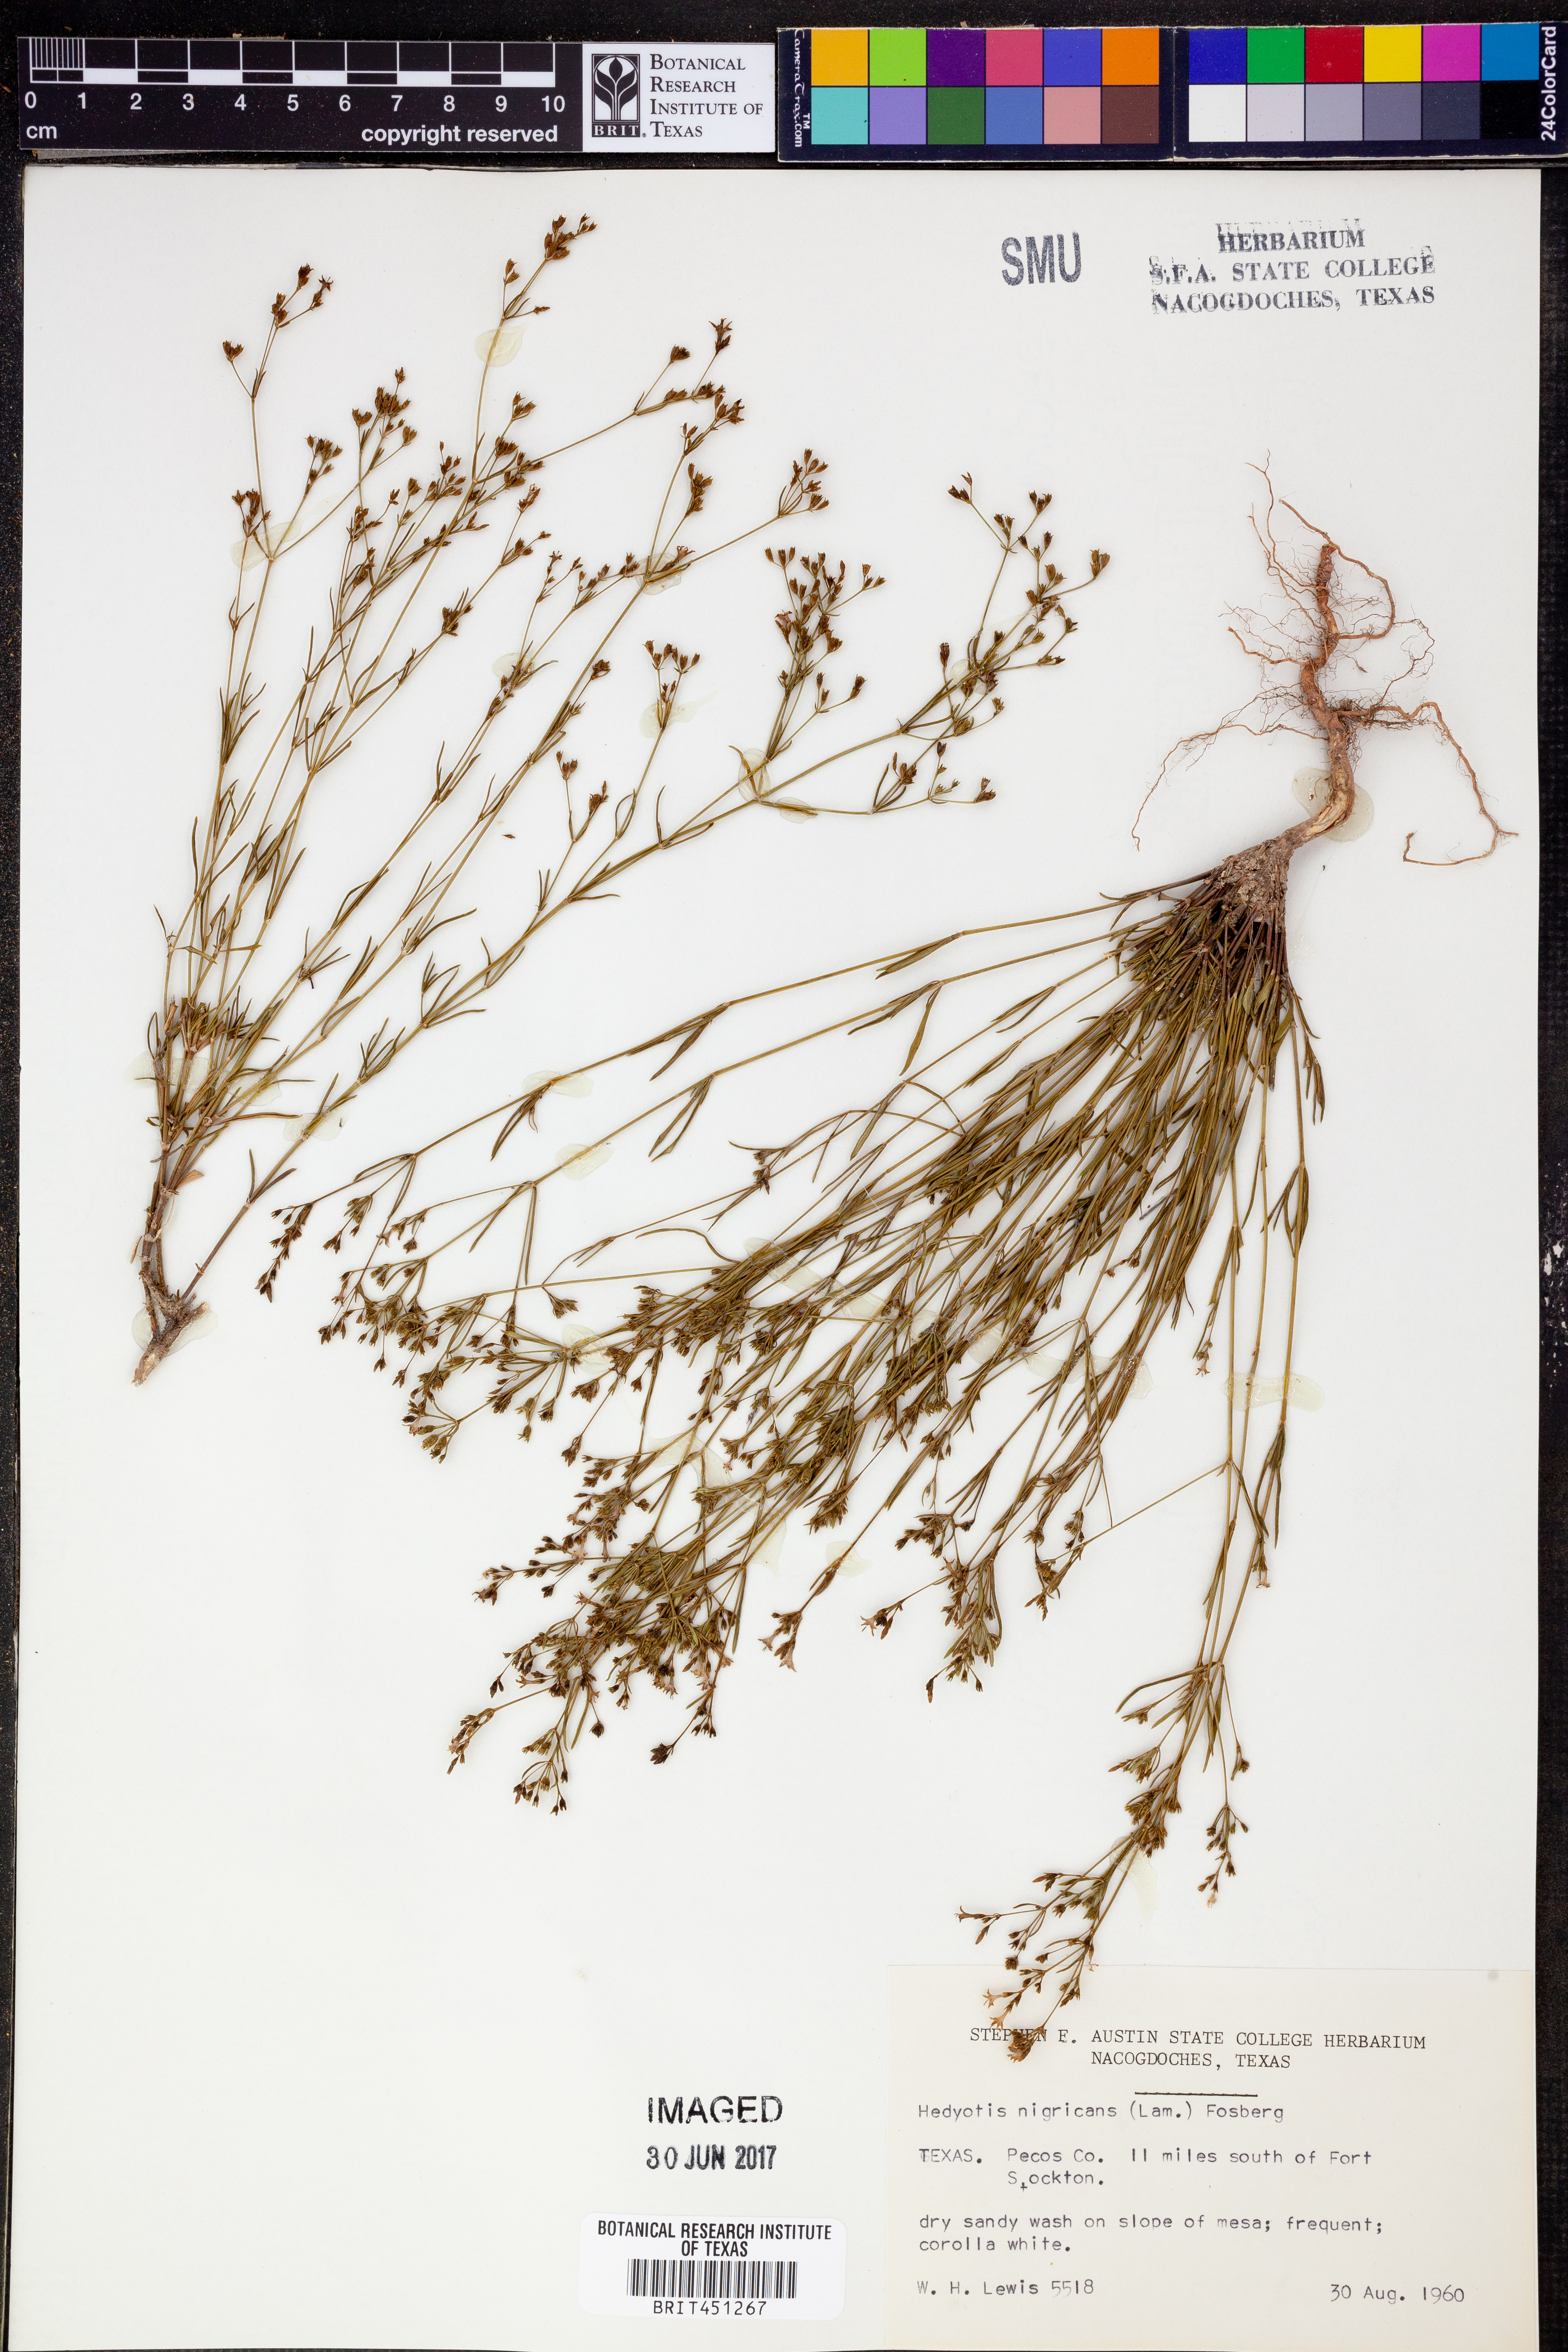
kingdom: Plantae
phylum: Tracheophyta
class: Magnoliopsida
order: Gentianales
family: Rubiaceae
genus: Stenaria
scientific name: Stenaria nigricans
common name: Diamondflowers
